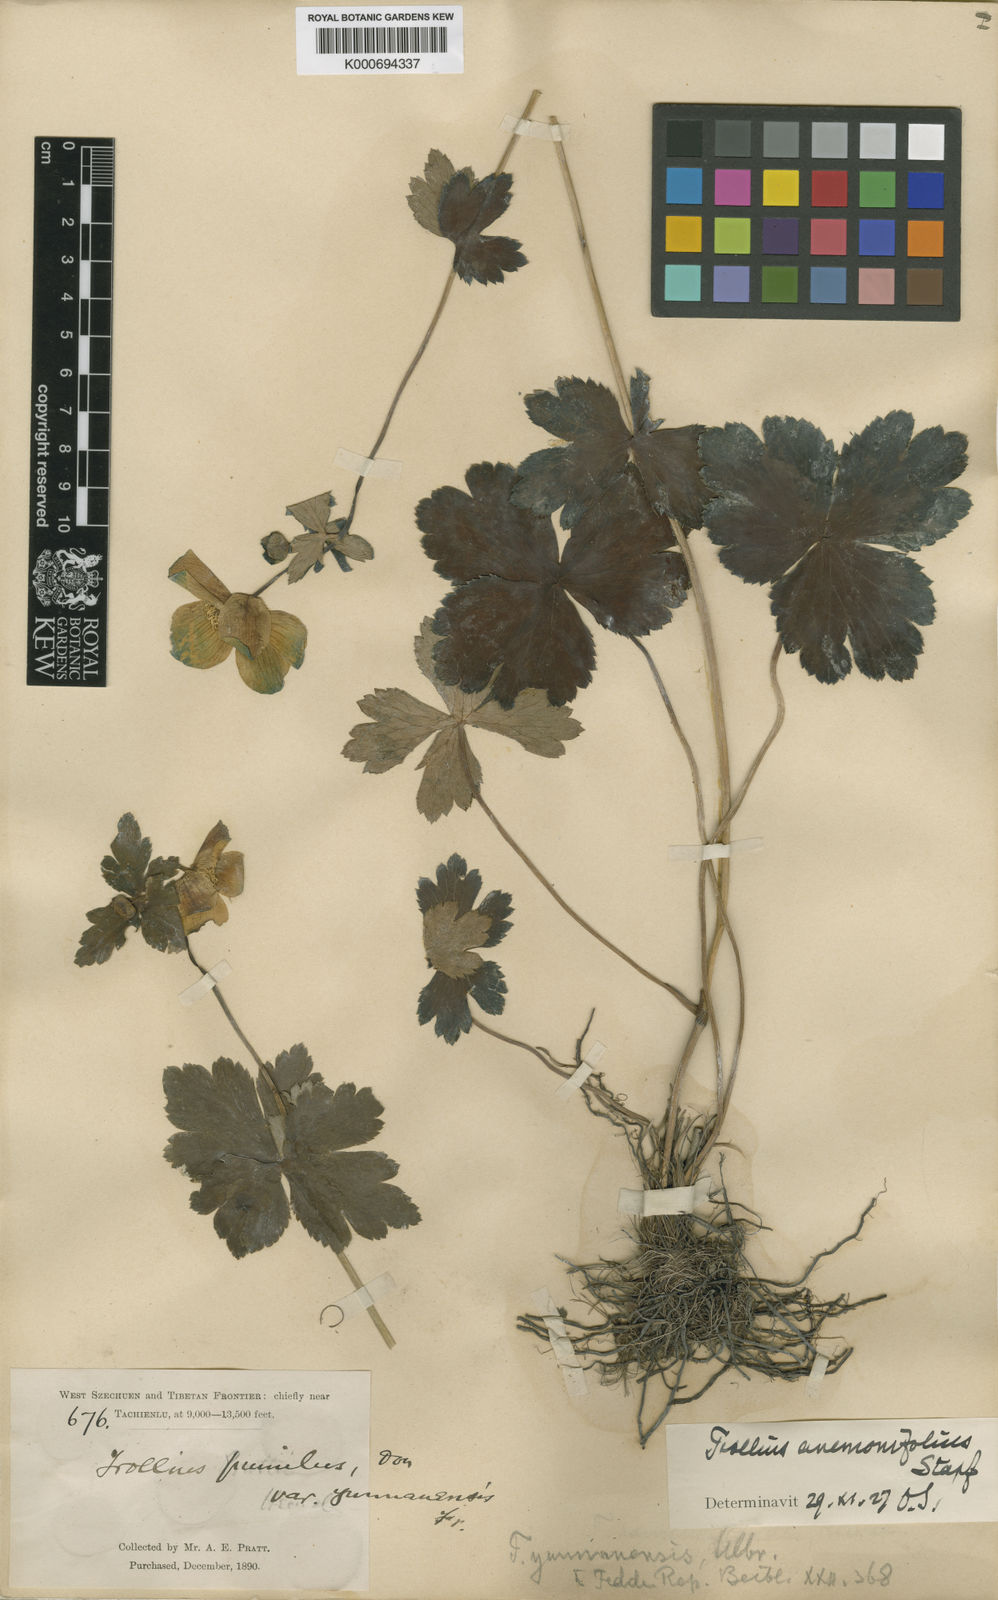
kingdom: Plantae
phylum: Tracheophyta
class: Magnoliopsida
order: Ranunculales
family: Ranunculaceae
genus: Trollius
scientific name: Trollius yunnanensis
